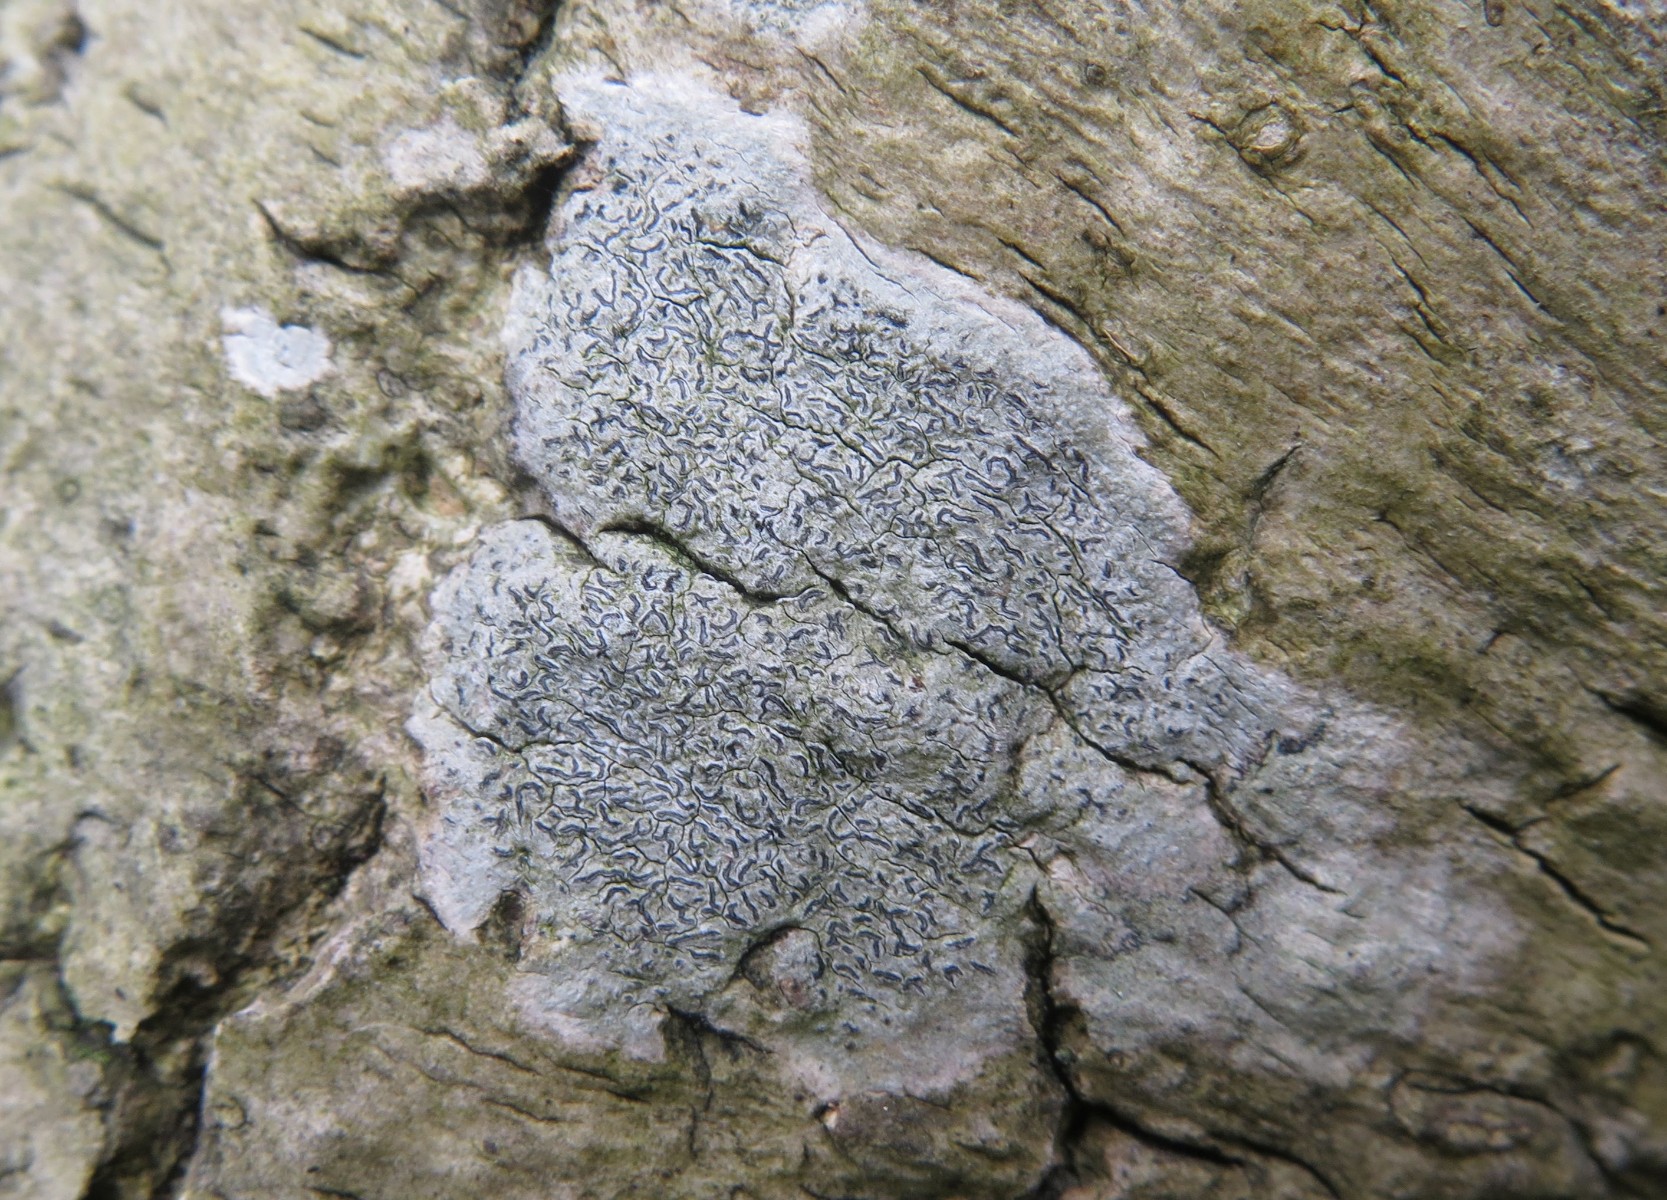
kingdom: Fungi
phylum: Ascomycota
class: Lecanoromycetes
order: Ostropales
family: Graphidaceae
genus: Graphis
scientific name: Graphis scripta
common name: almindelig skriftlav
